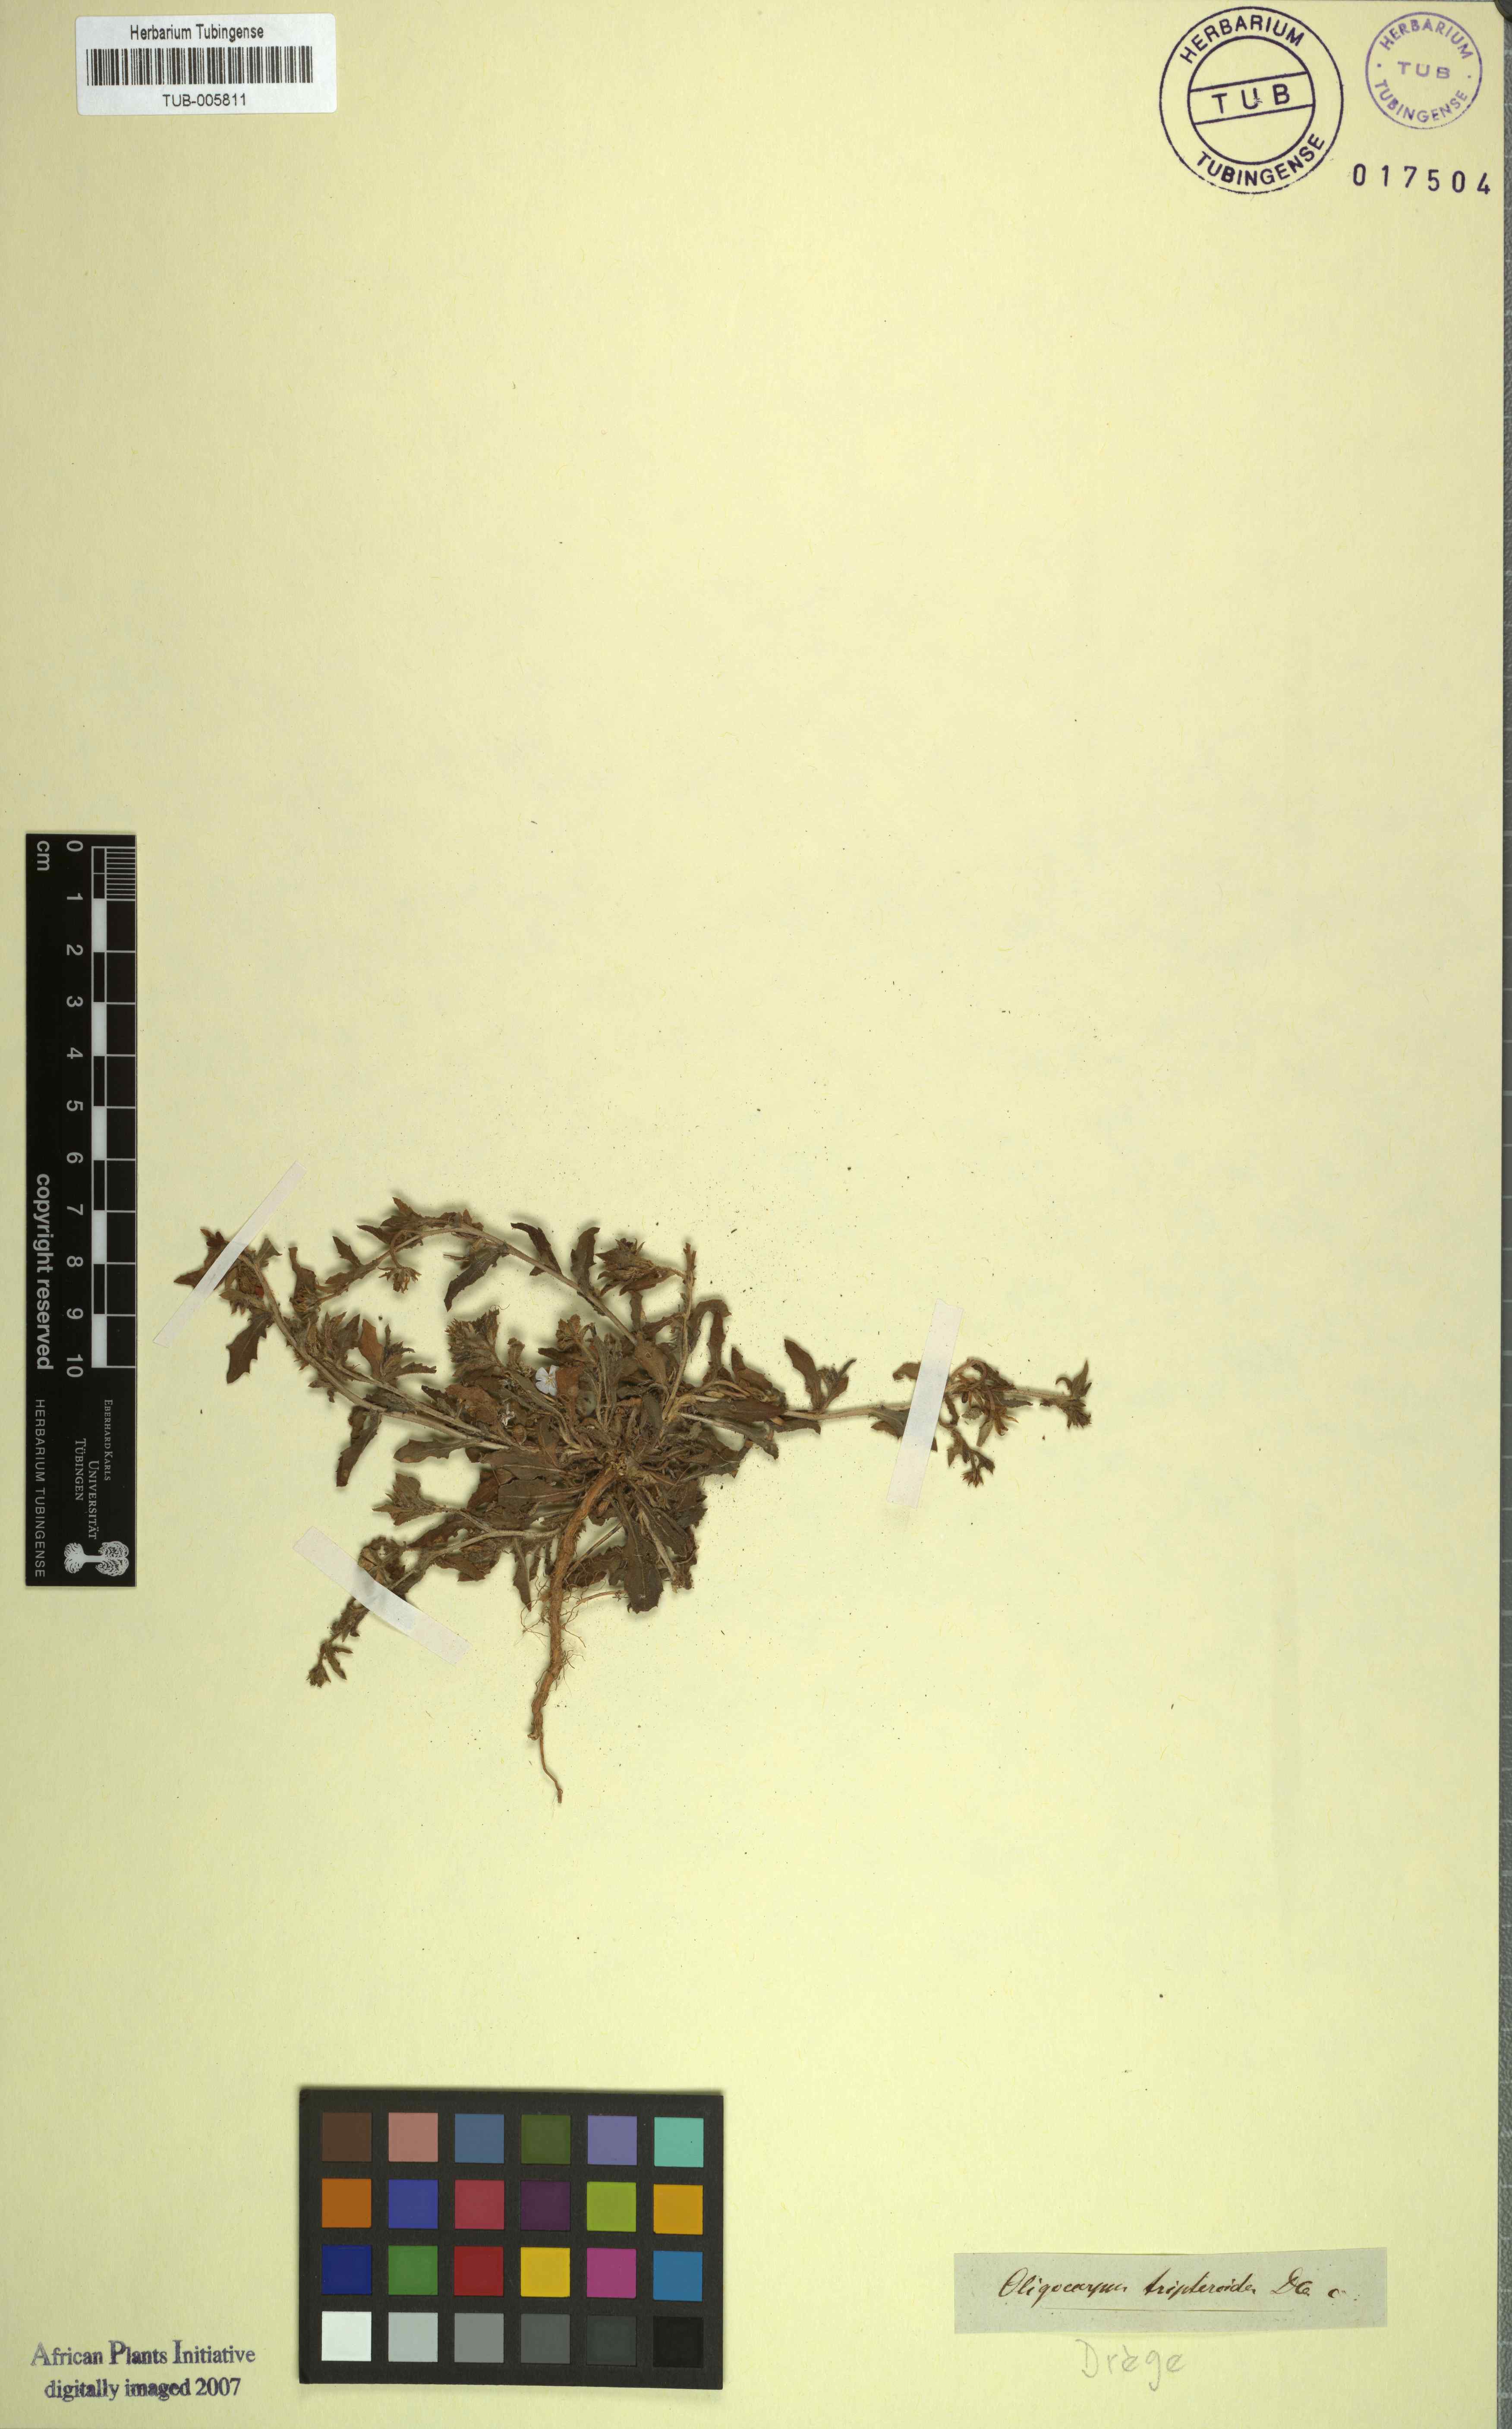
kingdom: Plantae
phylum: Tracheophyta
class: Magnoliopsida
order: Asterales
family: Asteraceae
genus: Osteospermum
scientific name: Osteospermum spinescens
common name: Sunflower
